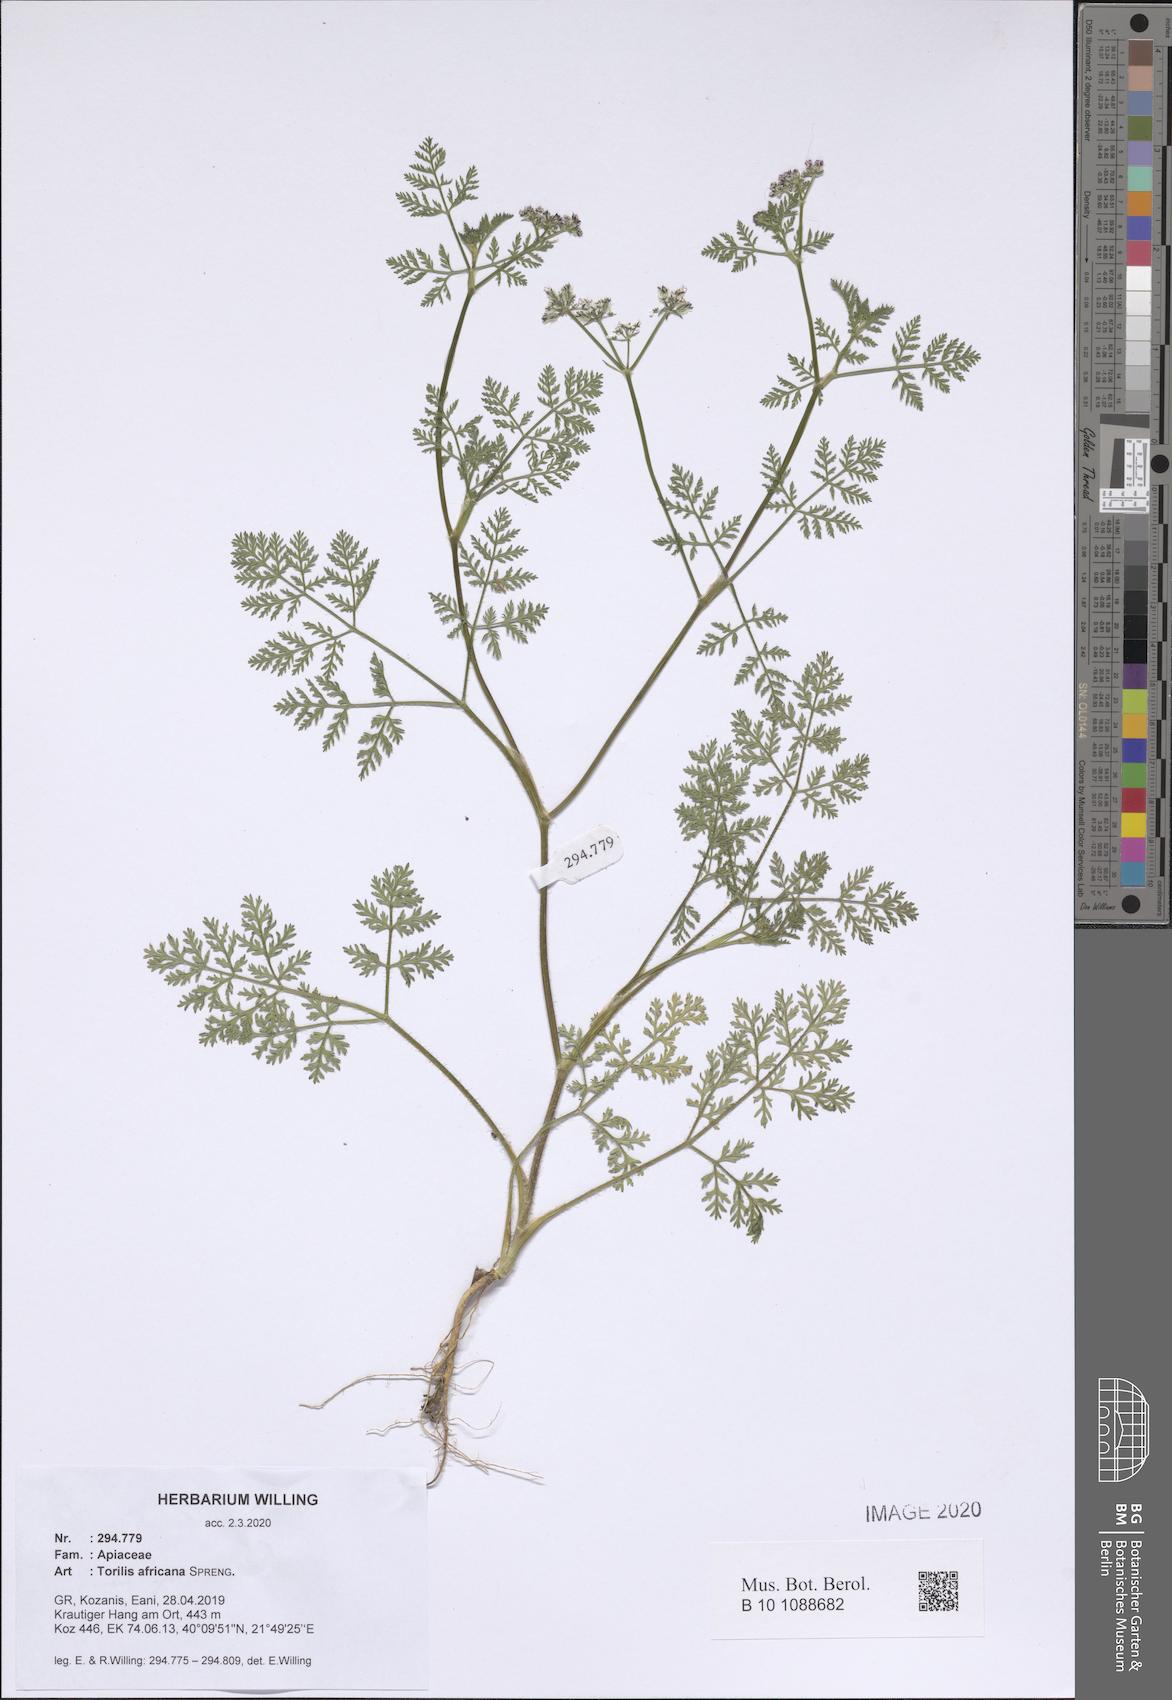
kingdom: Plantae
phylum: Tracheophyta
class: Magnoliopsida
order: Apiales
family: Apiaceae
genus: Torilis
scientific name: Torilis africana
